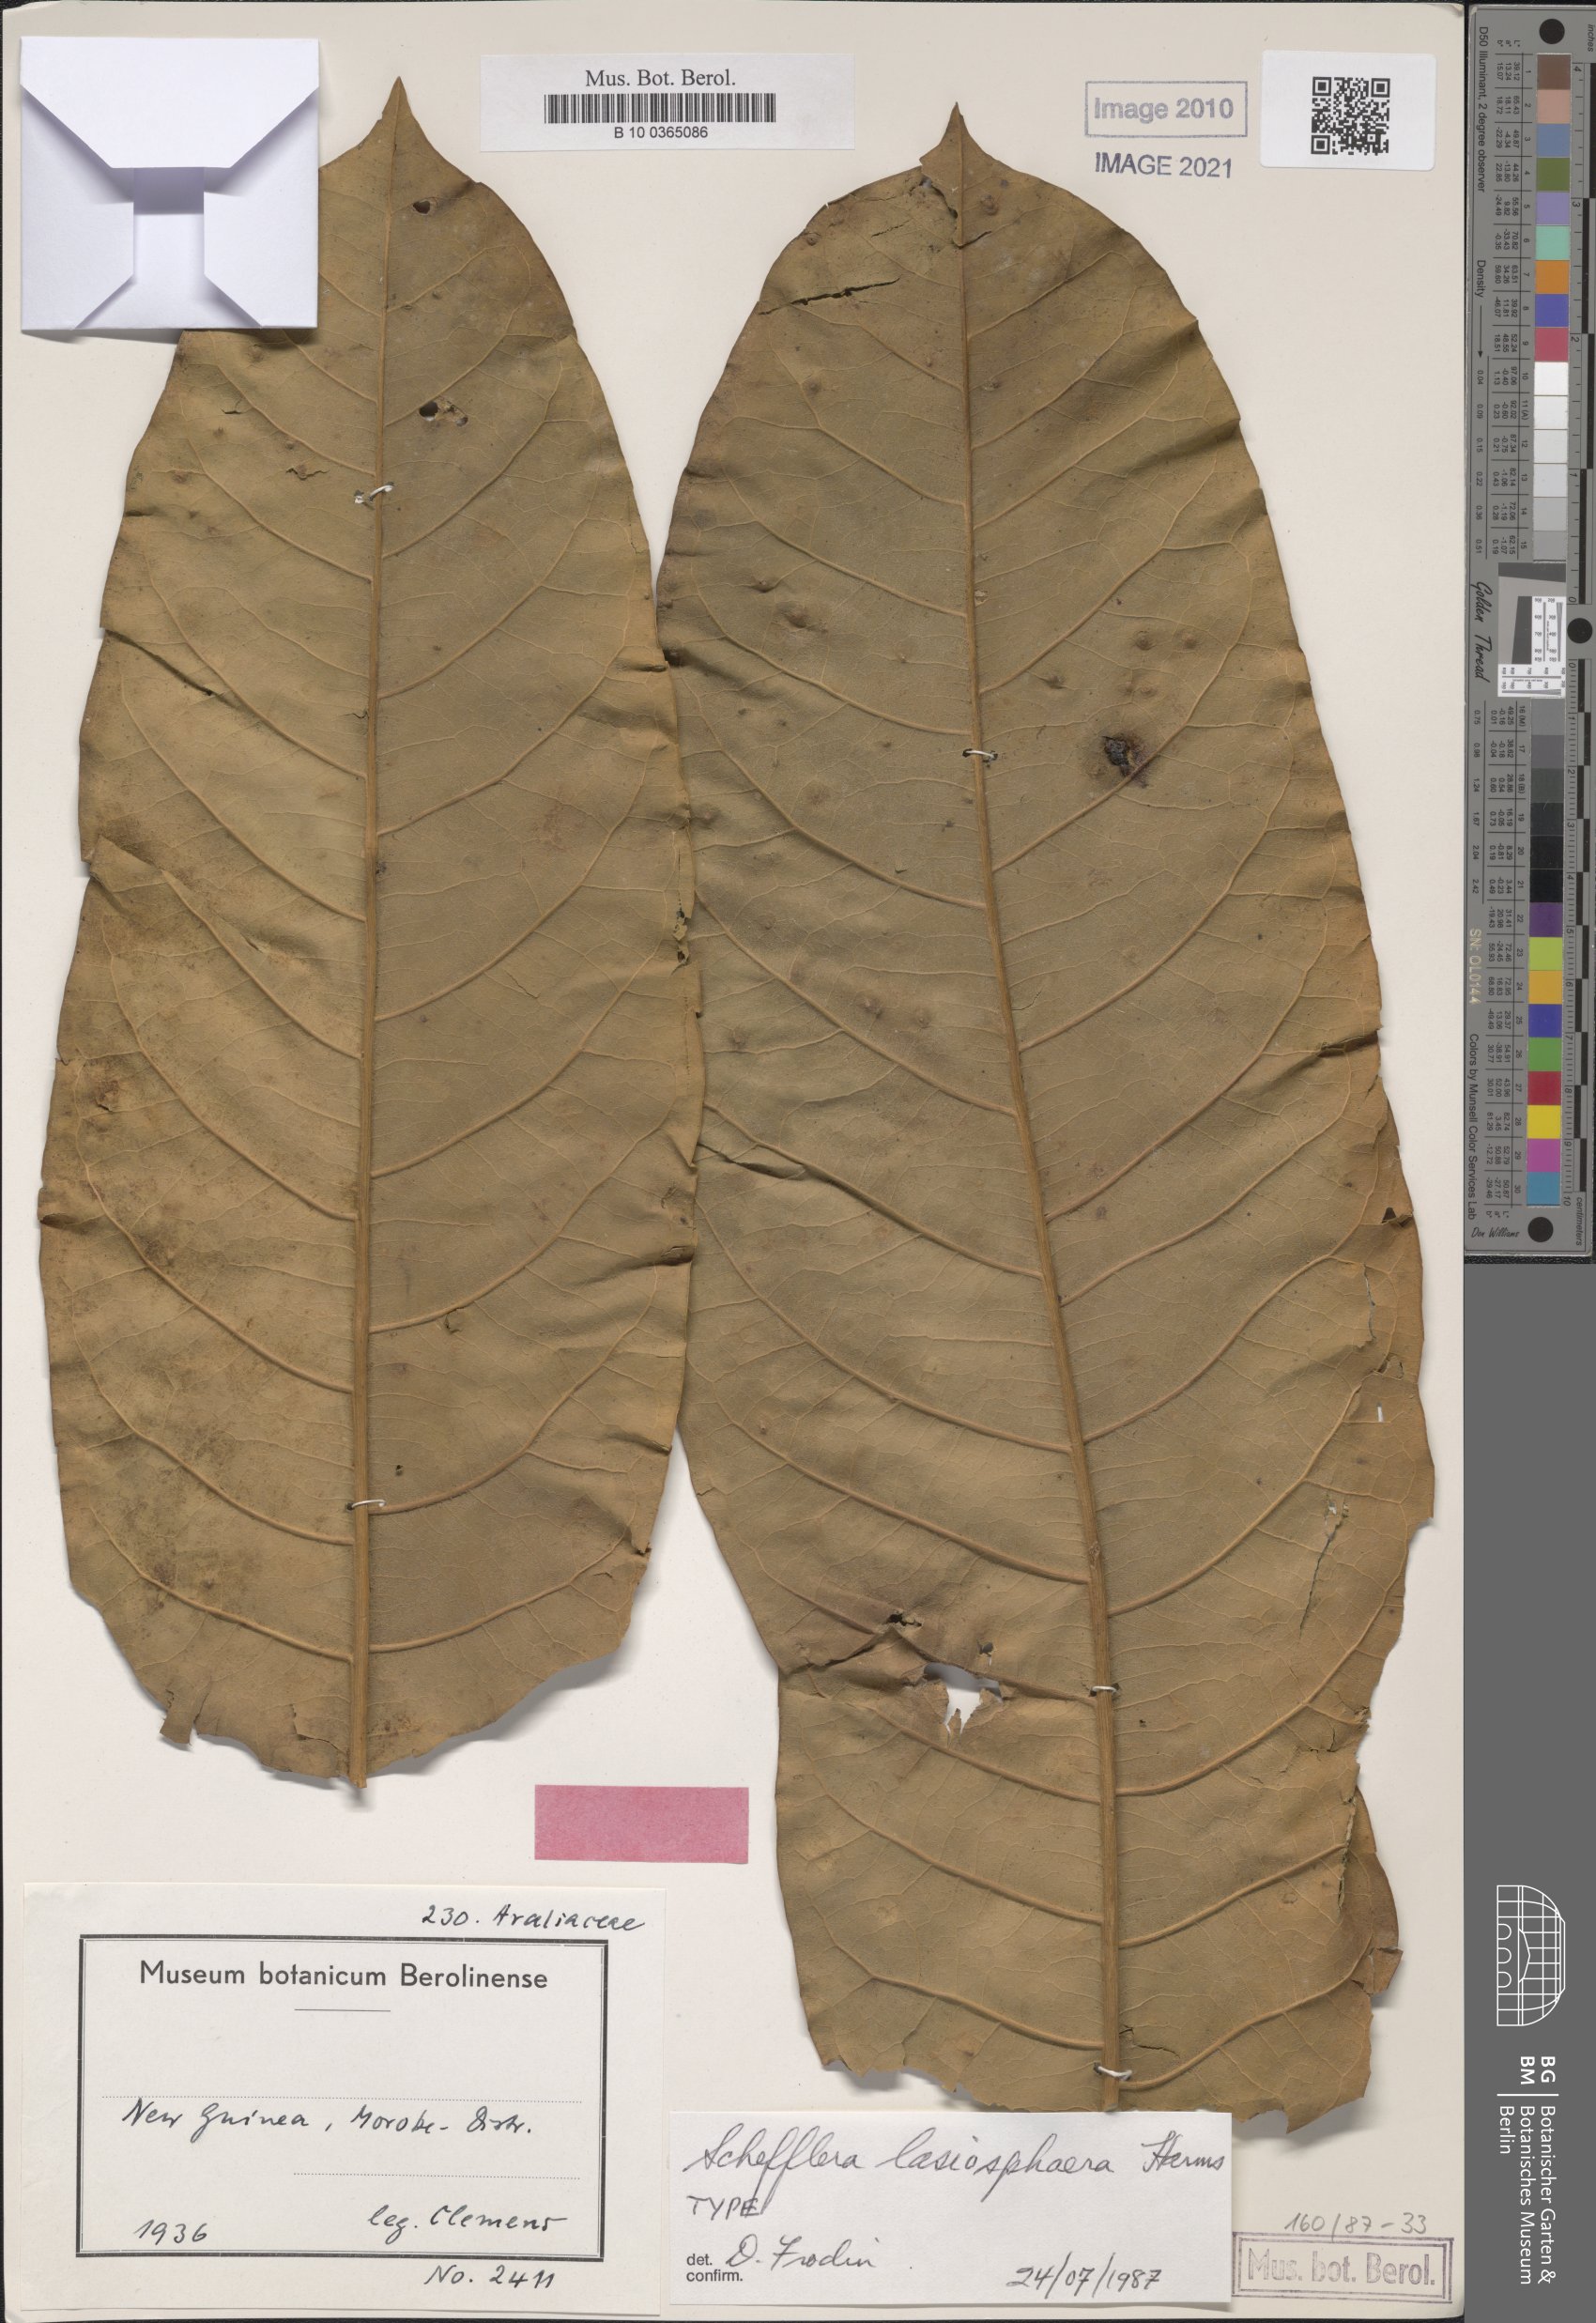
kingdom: Plantae
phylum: Tracheophyta
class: Magnoliopsida
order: Apiales
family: Araliaceae
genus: Heptapleurum
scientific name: Heptapleurum lasiosphaerum
